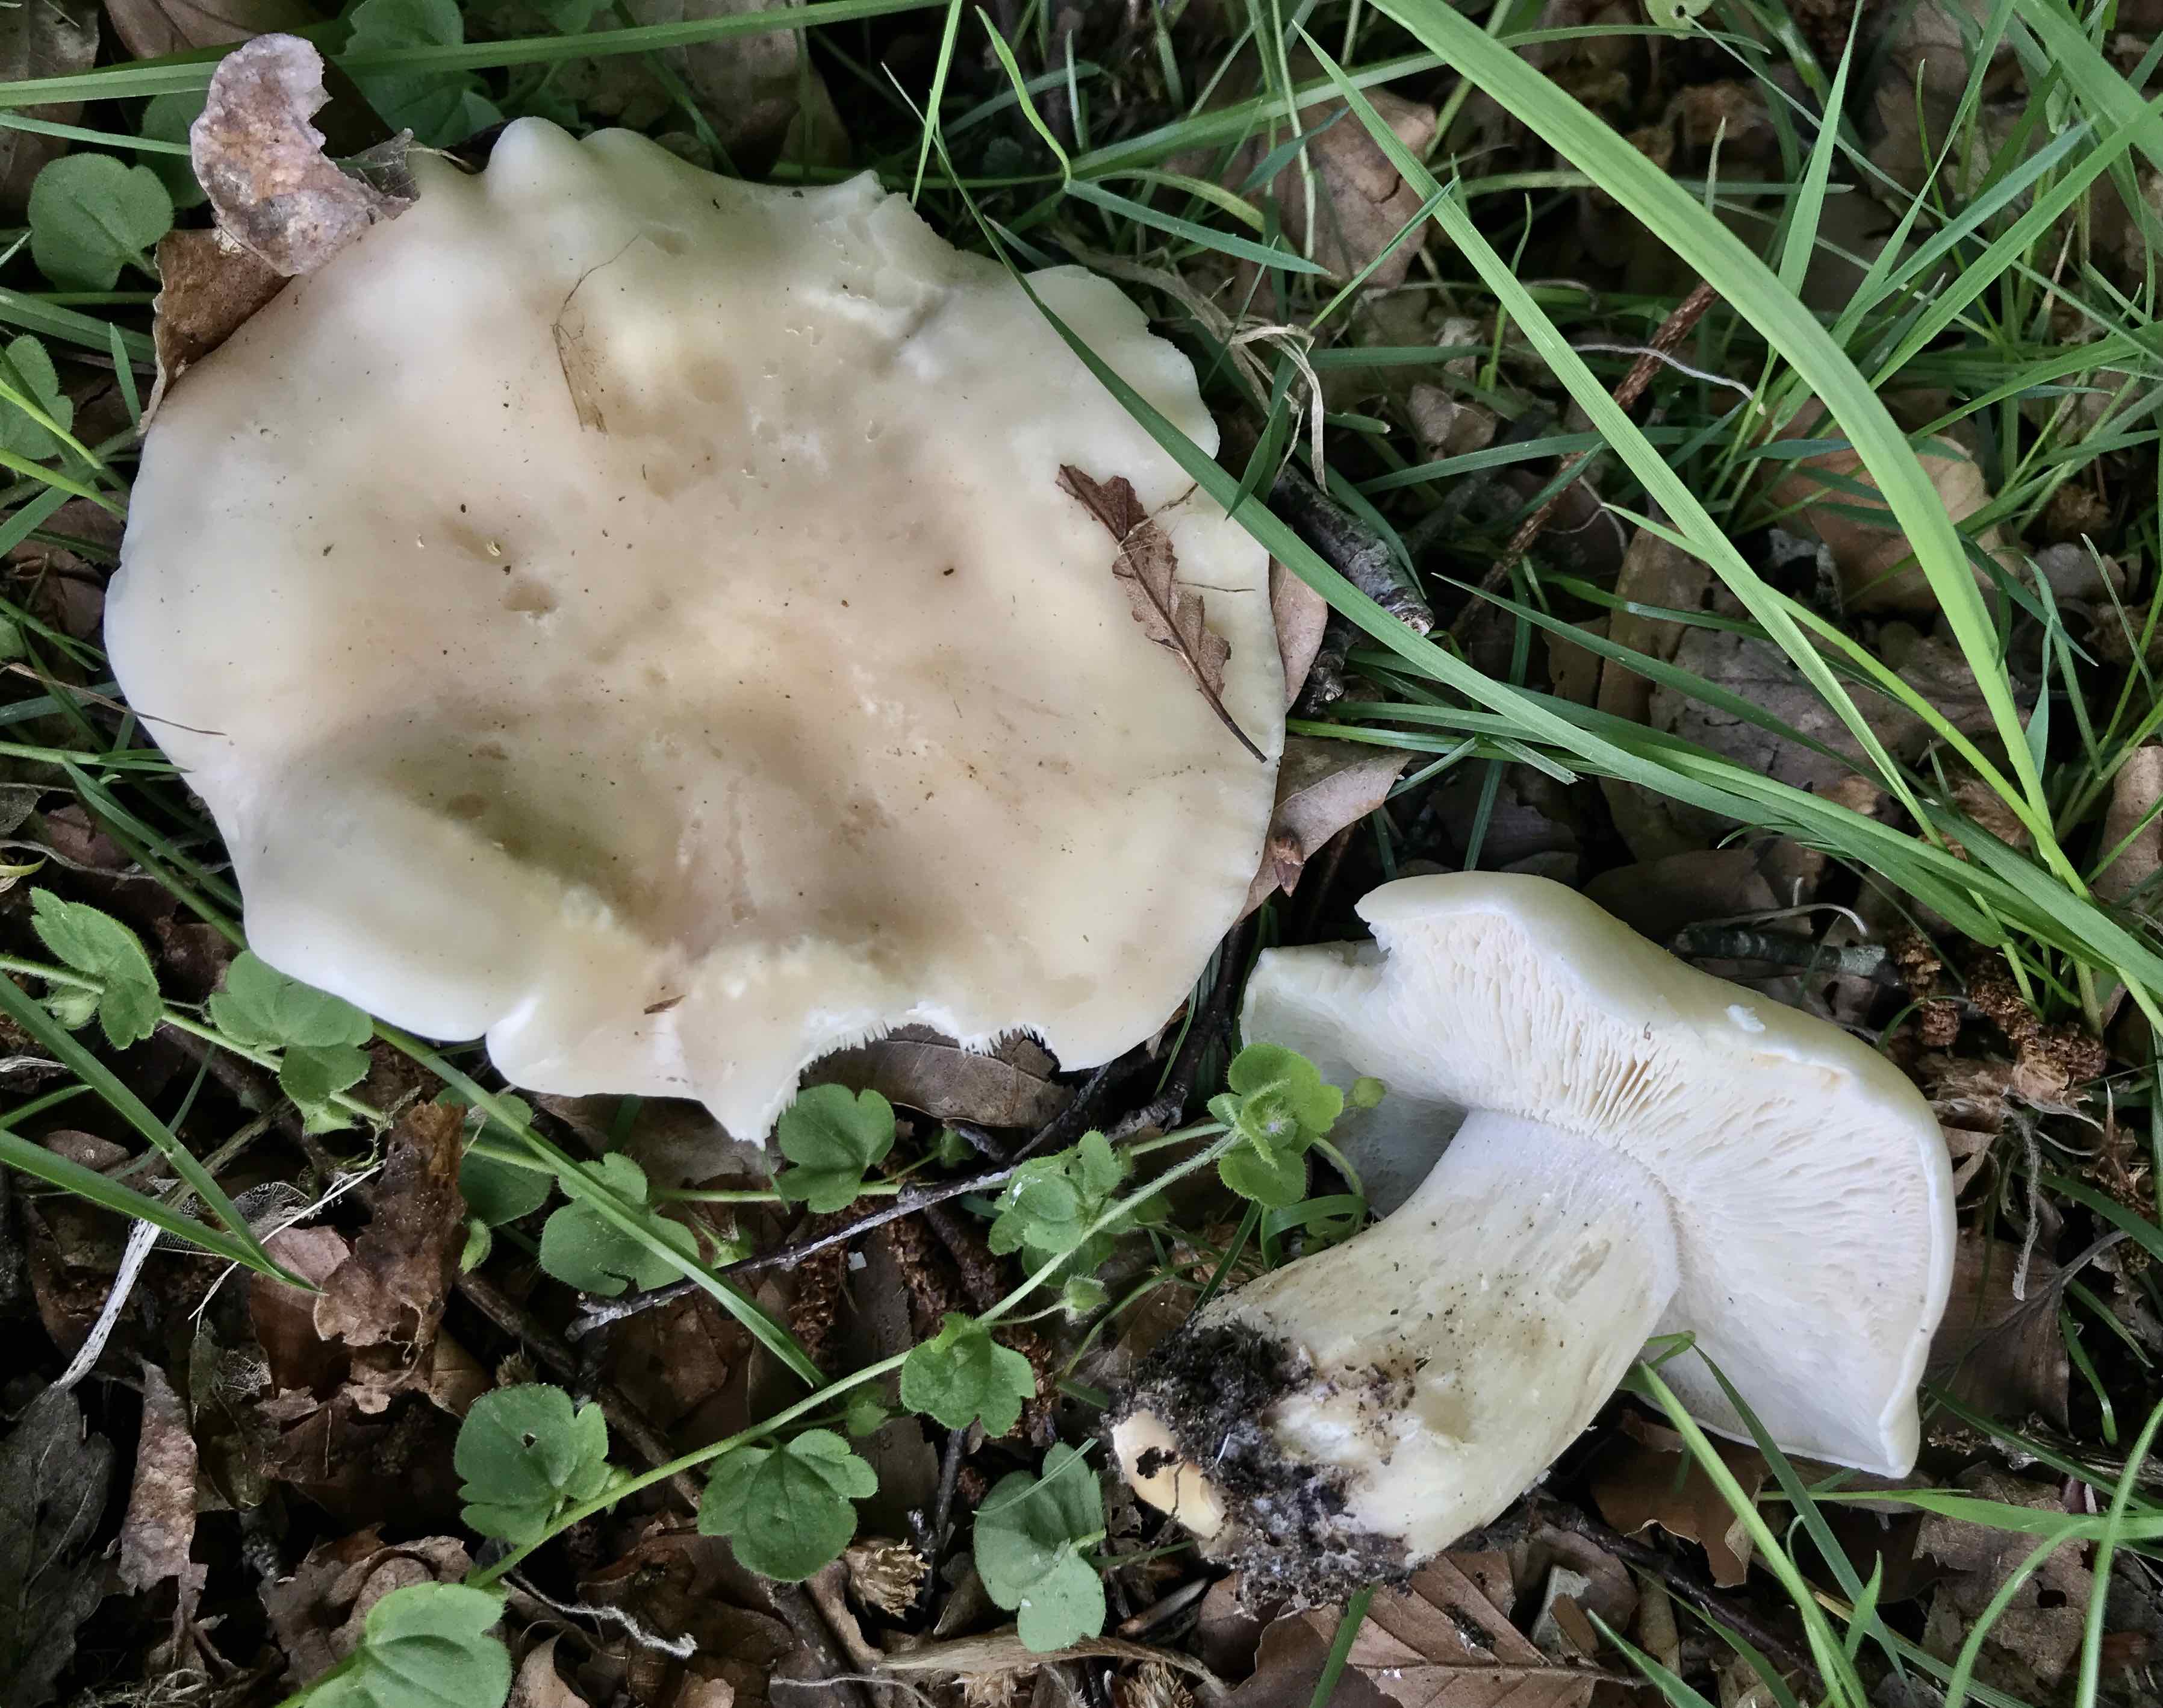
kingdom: Fungi
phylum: Basidiomycota
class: Agaricomycetes
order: Agaricales
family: Lyophyllaceae
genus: Calocybe
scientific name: Calocybe gambosa
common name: vårmusseron
